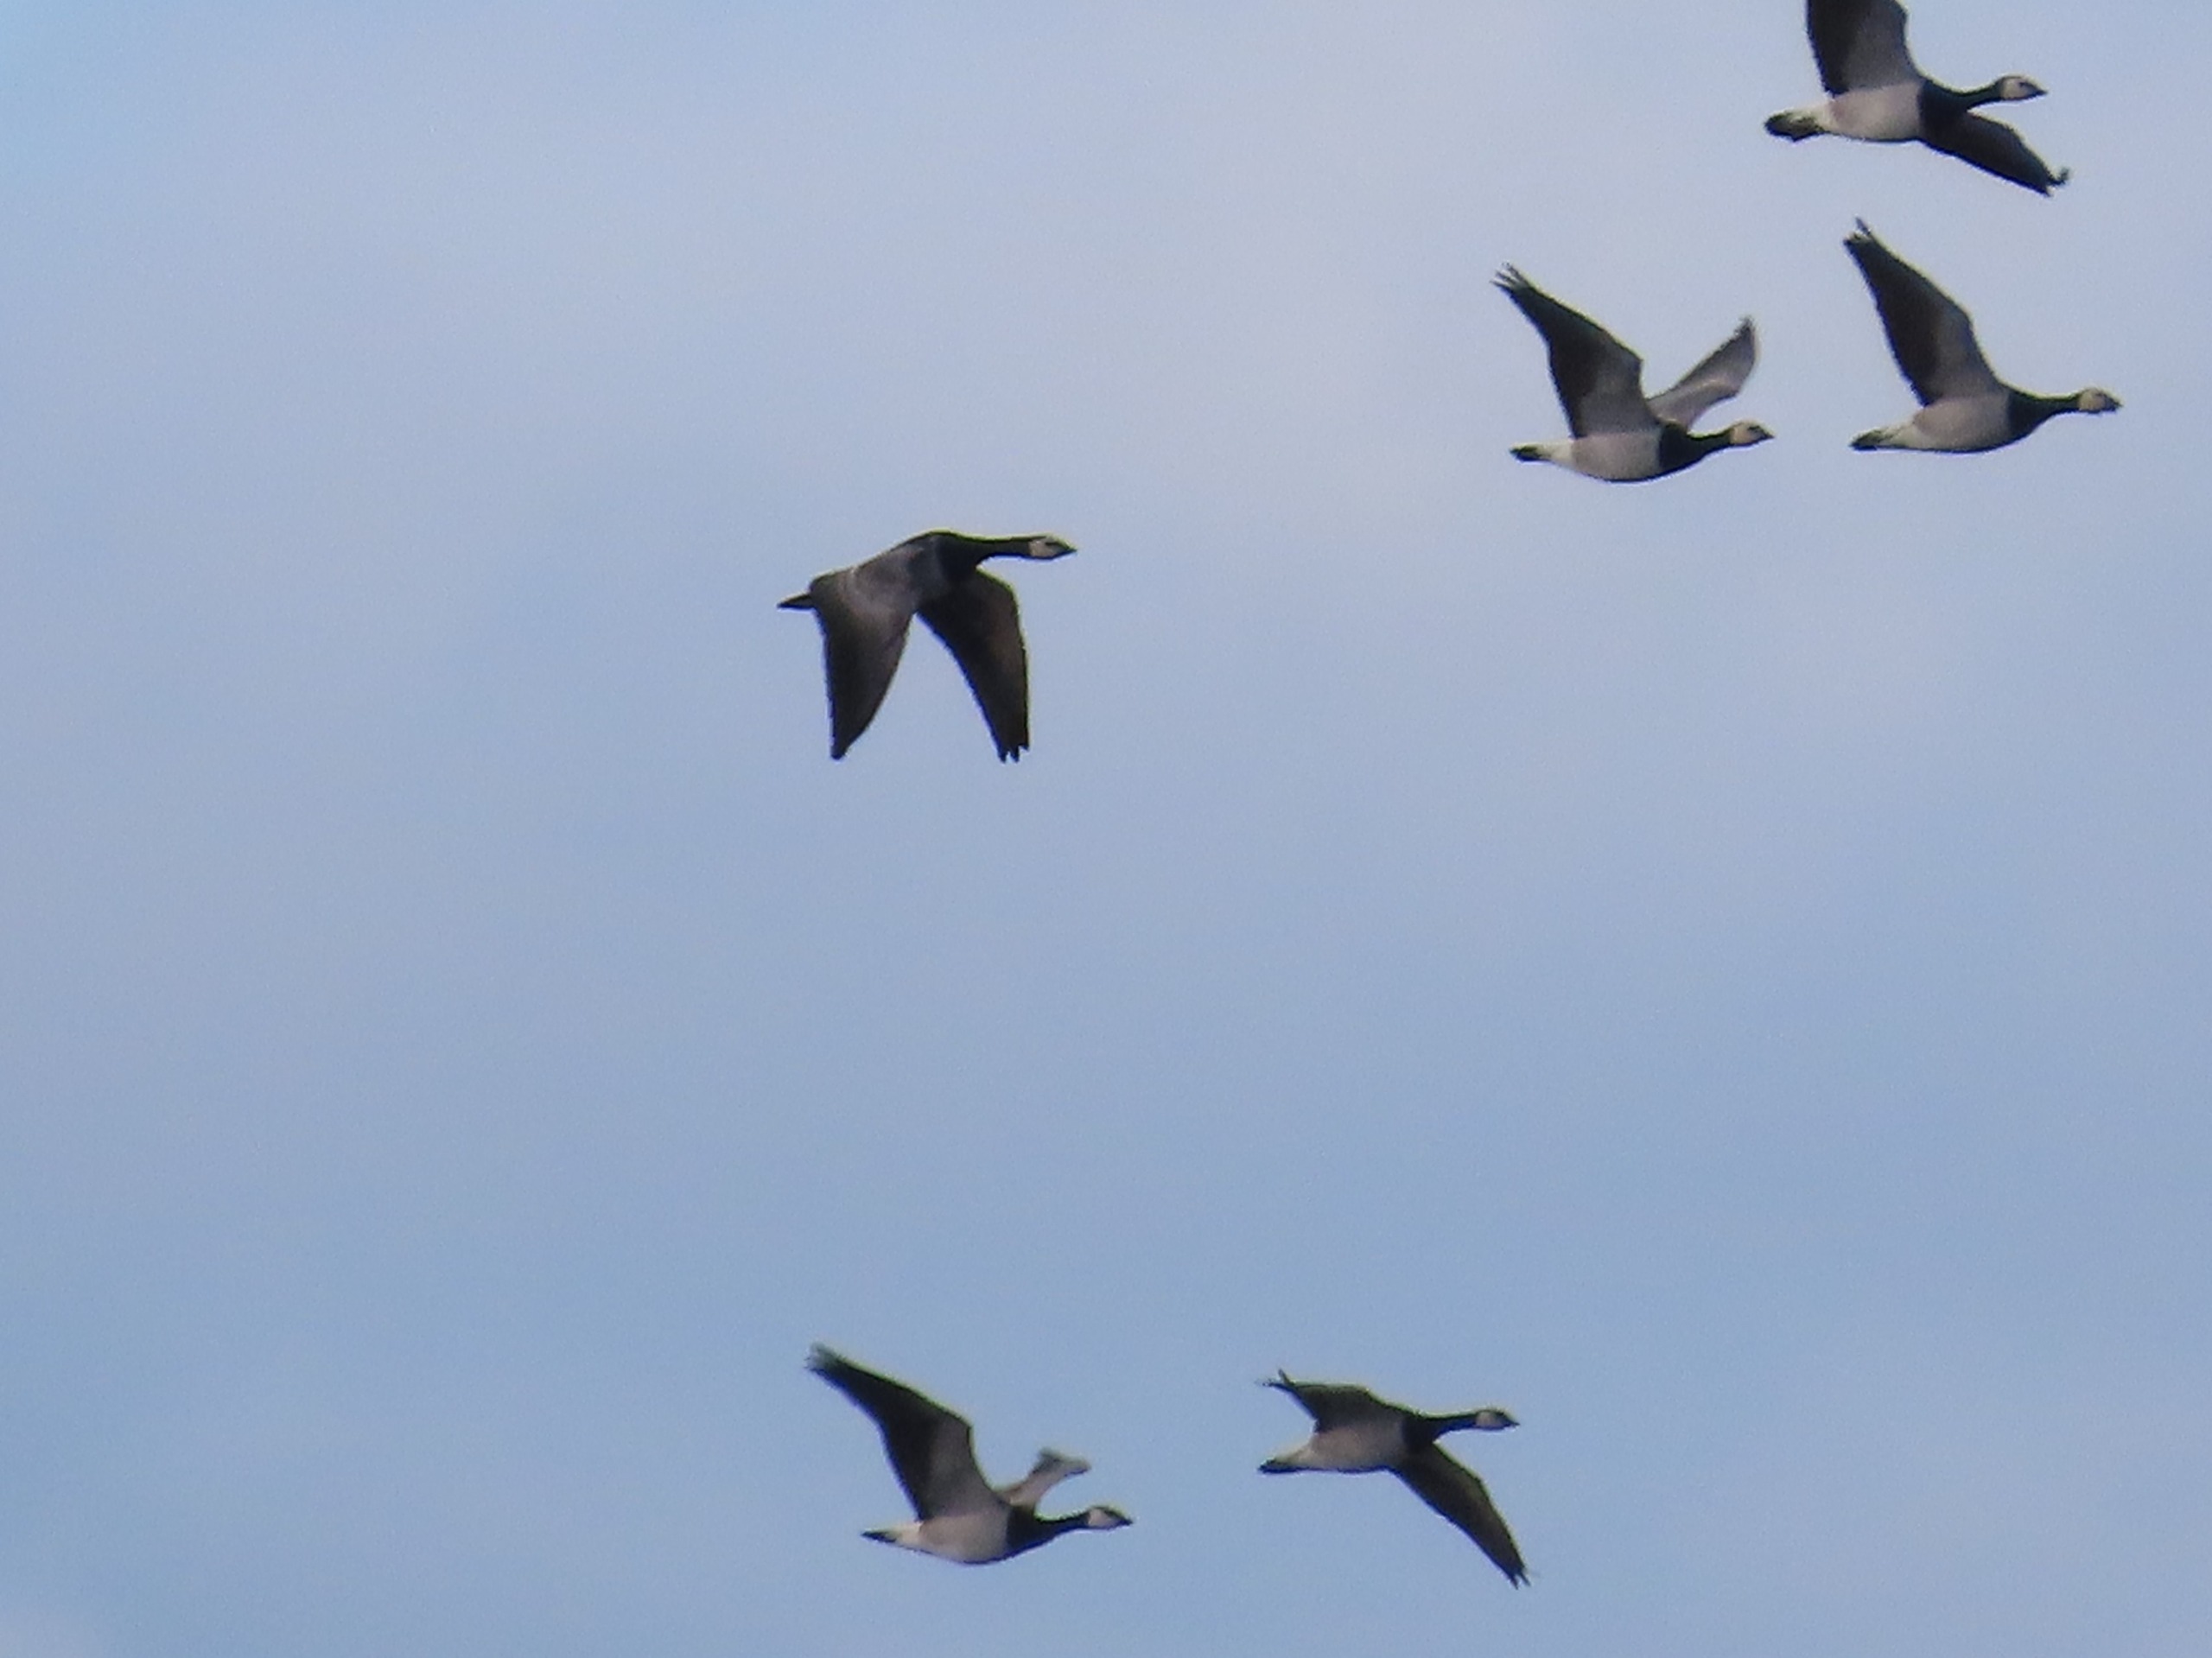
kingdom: Animalia
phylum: Chordata
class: Aves
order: Anseriformes
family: Anatidae
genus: Branta
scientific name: Branta leucopsis
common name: Bramgås
